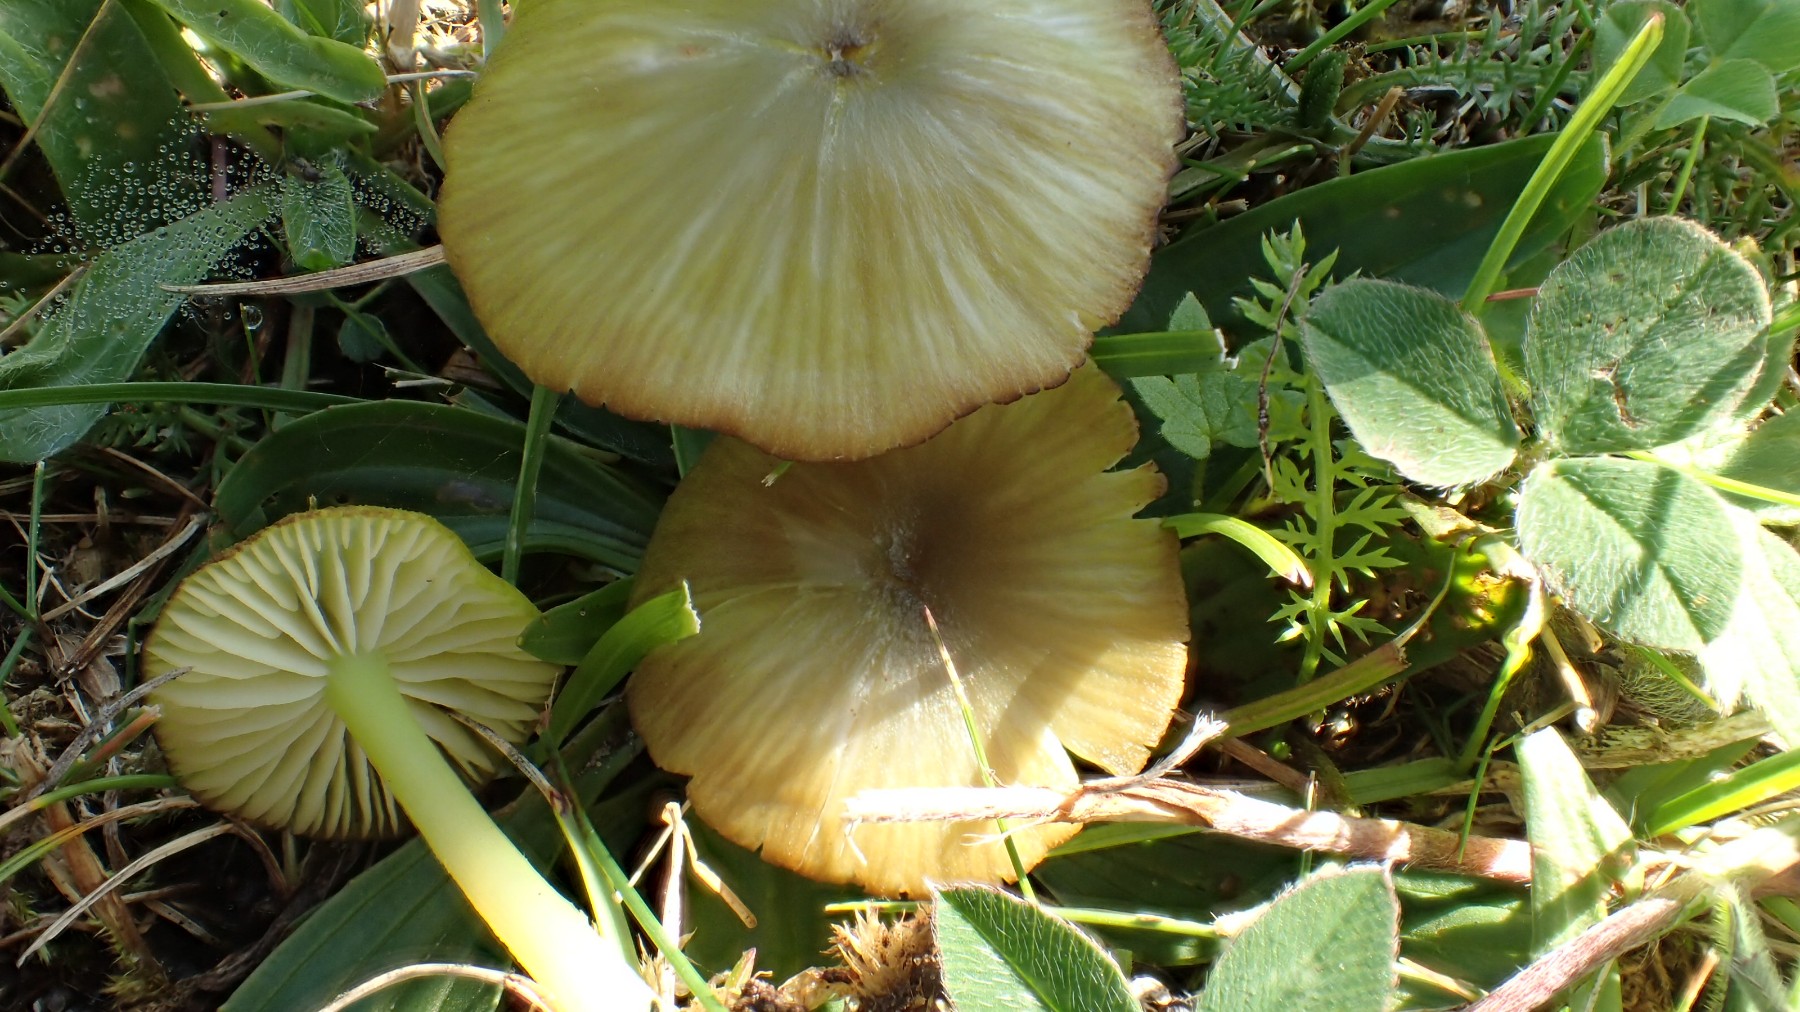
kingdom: Fungi
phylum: Basidiomycota
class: Agaricomycetes
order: Agaricales
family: Entolomataceae
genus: Entoloma
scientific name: Entoloma incanum
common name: grøngul rødblad
